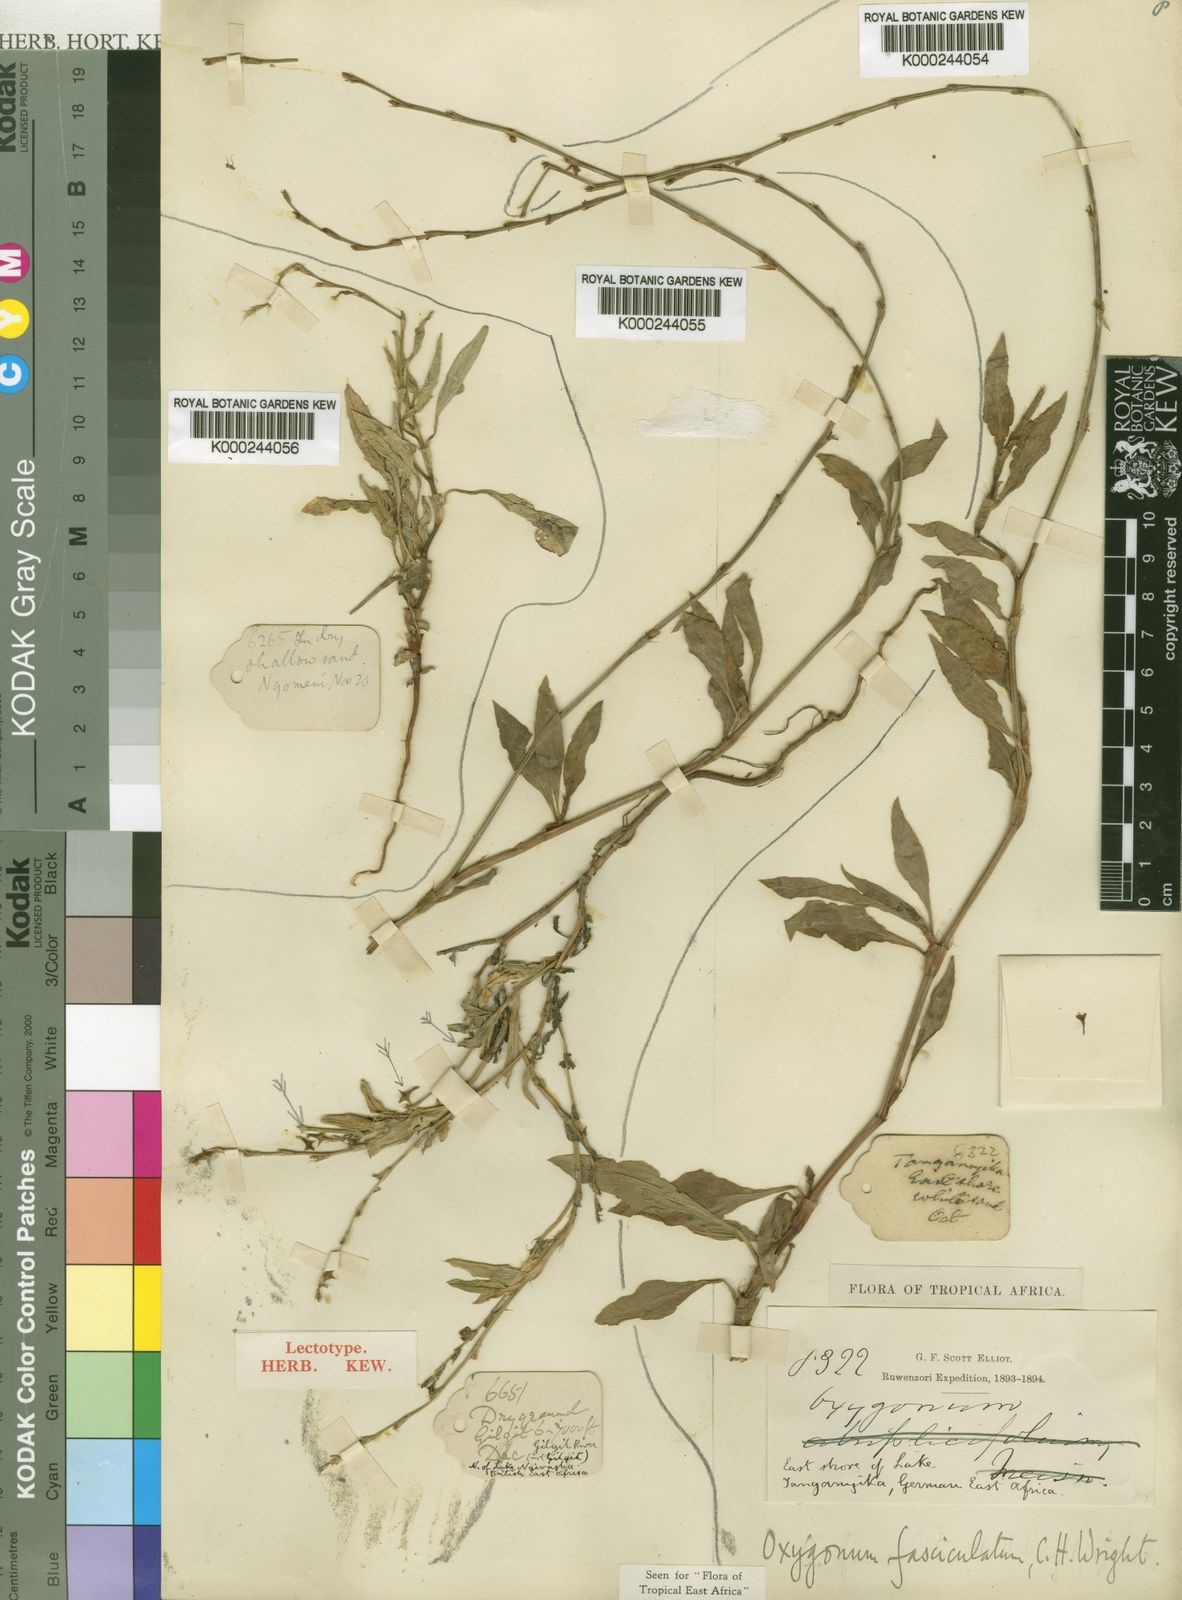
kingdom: Plantae
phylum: Tracheophyta
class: Magnoliopsida
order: Caryophyllales
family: Polygonaceae
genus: Oxygonum
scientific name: Oxygonum stuhlmannii
